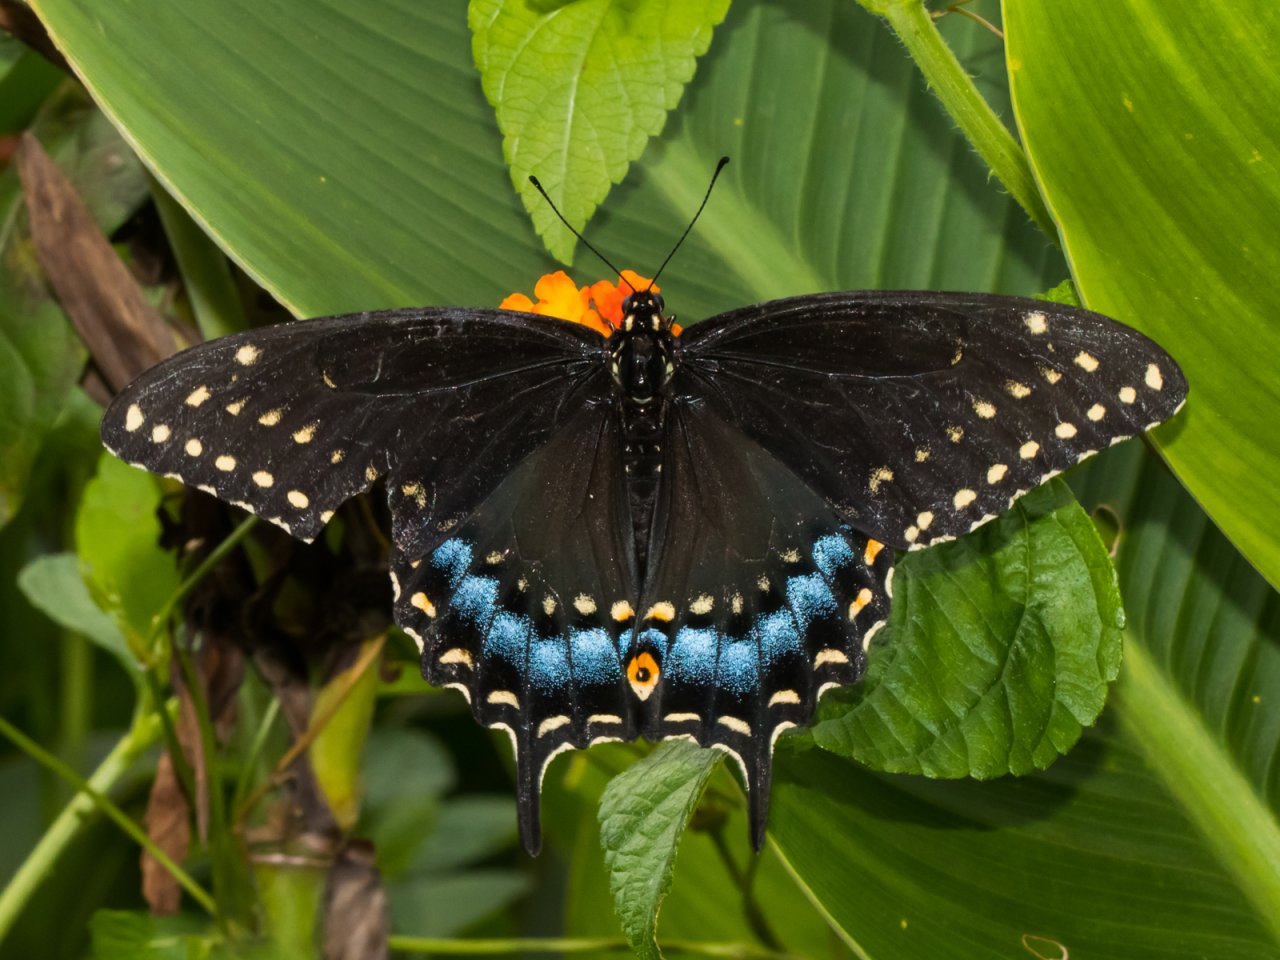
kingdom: Animalia
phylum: Arthropoda
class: Insecta
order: Lepidoptera
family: Papilionidae
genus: Papilio
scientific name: Papilio polyxenes
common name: Black Swallowtail
